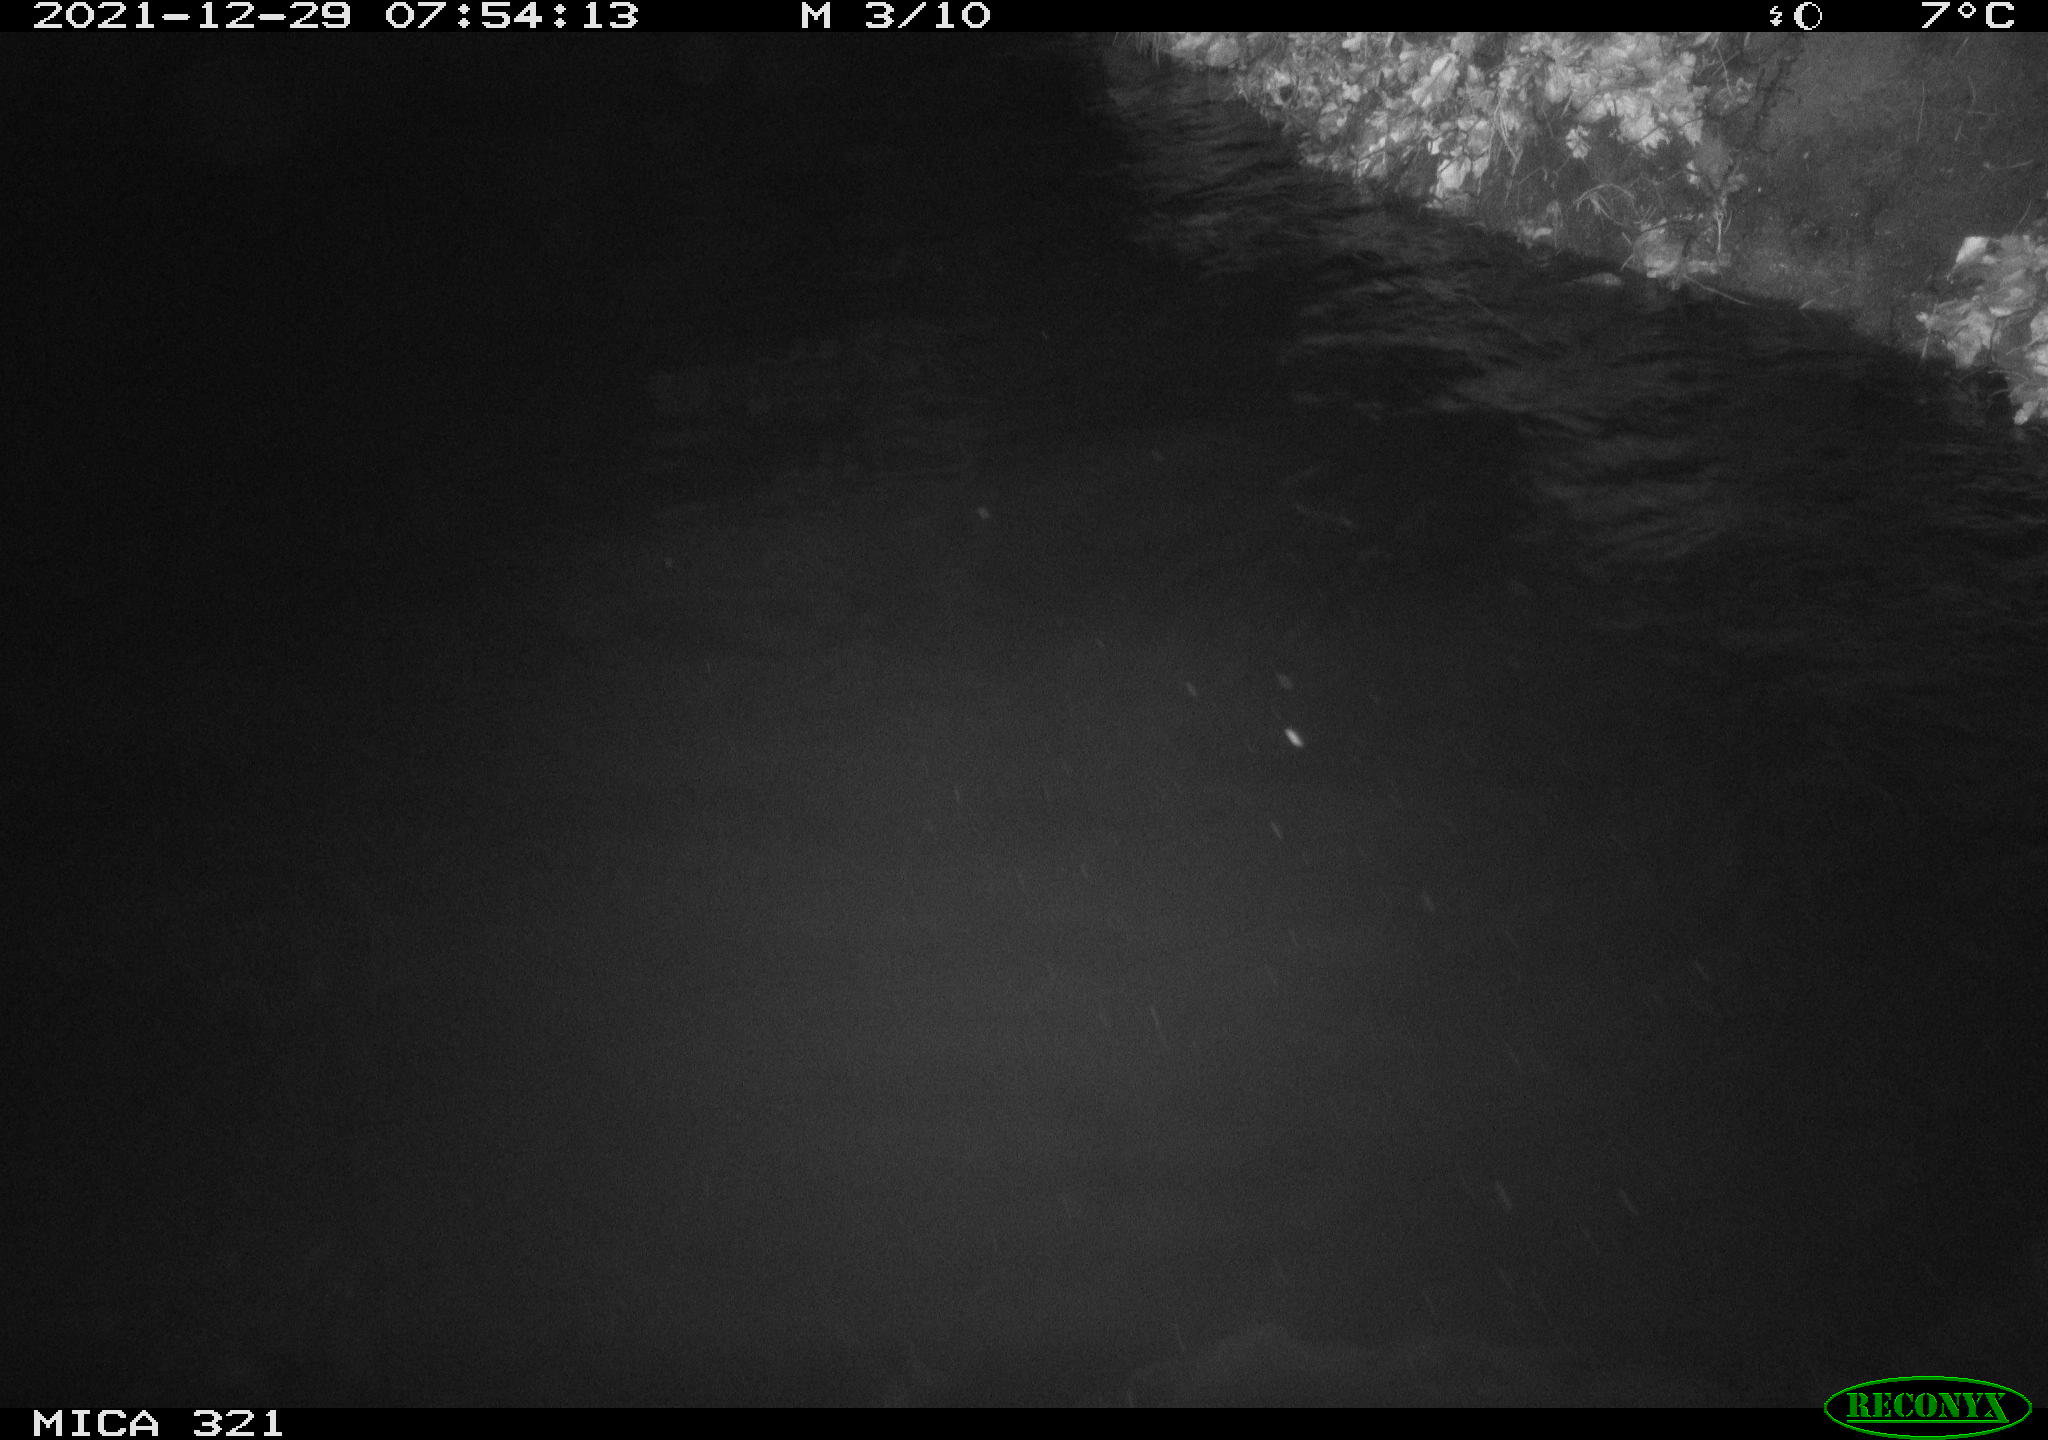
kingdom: Animalia
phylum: Chordata
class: Aves
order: Anseriformes
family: Anatidae
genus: Anas
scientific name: Anas
